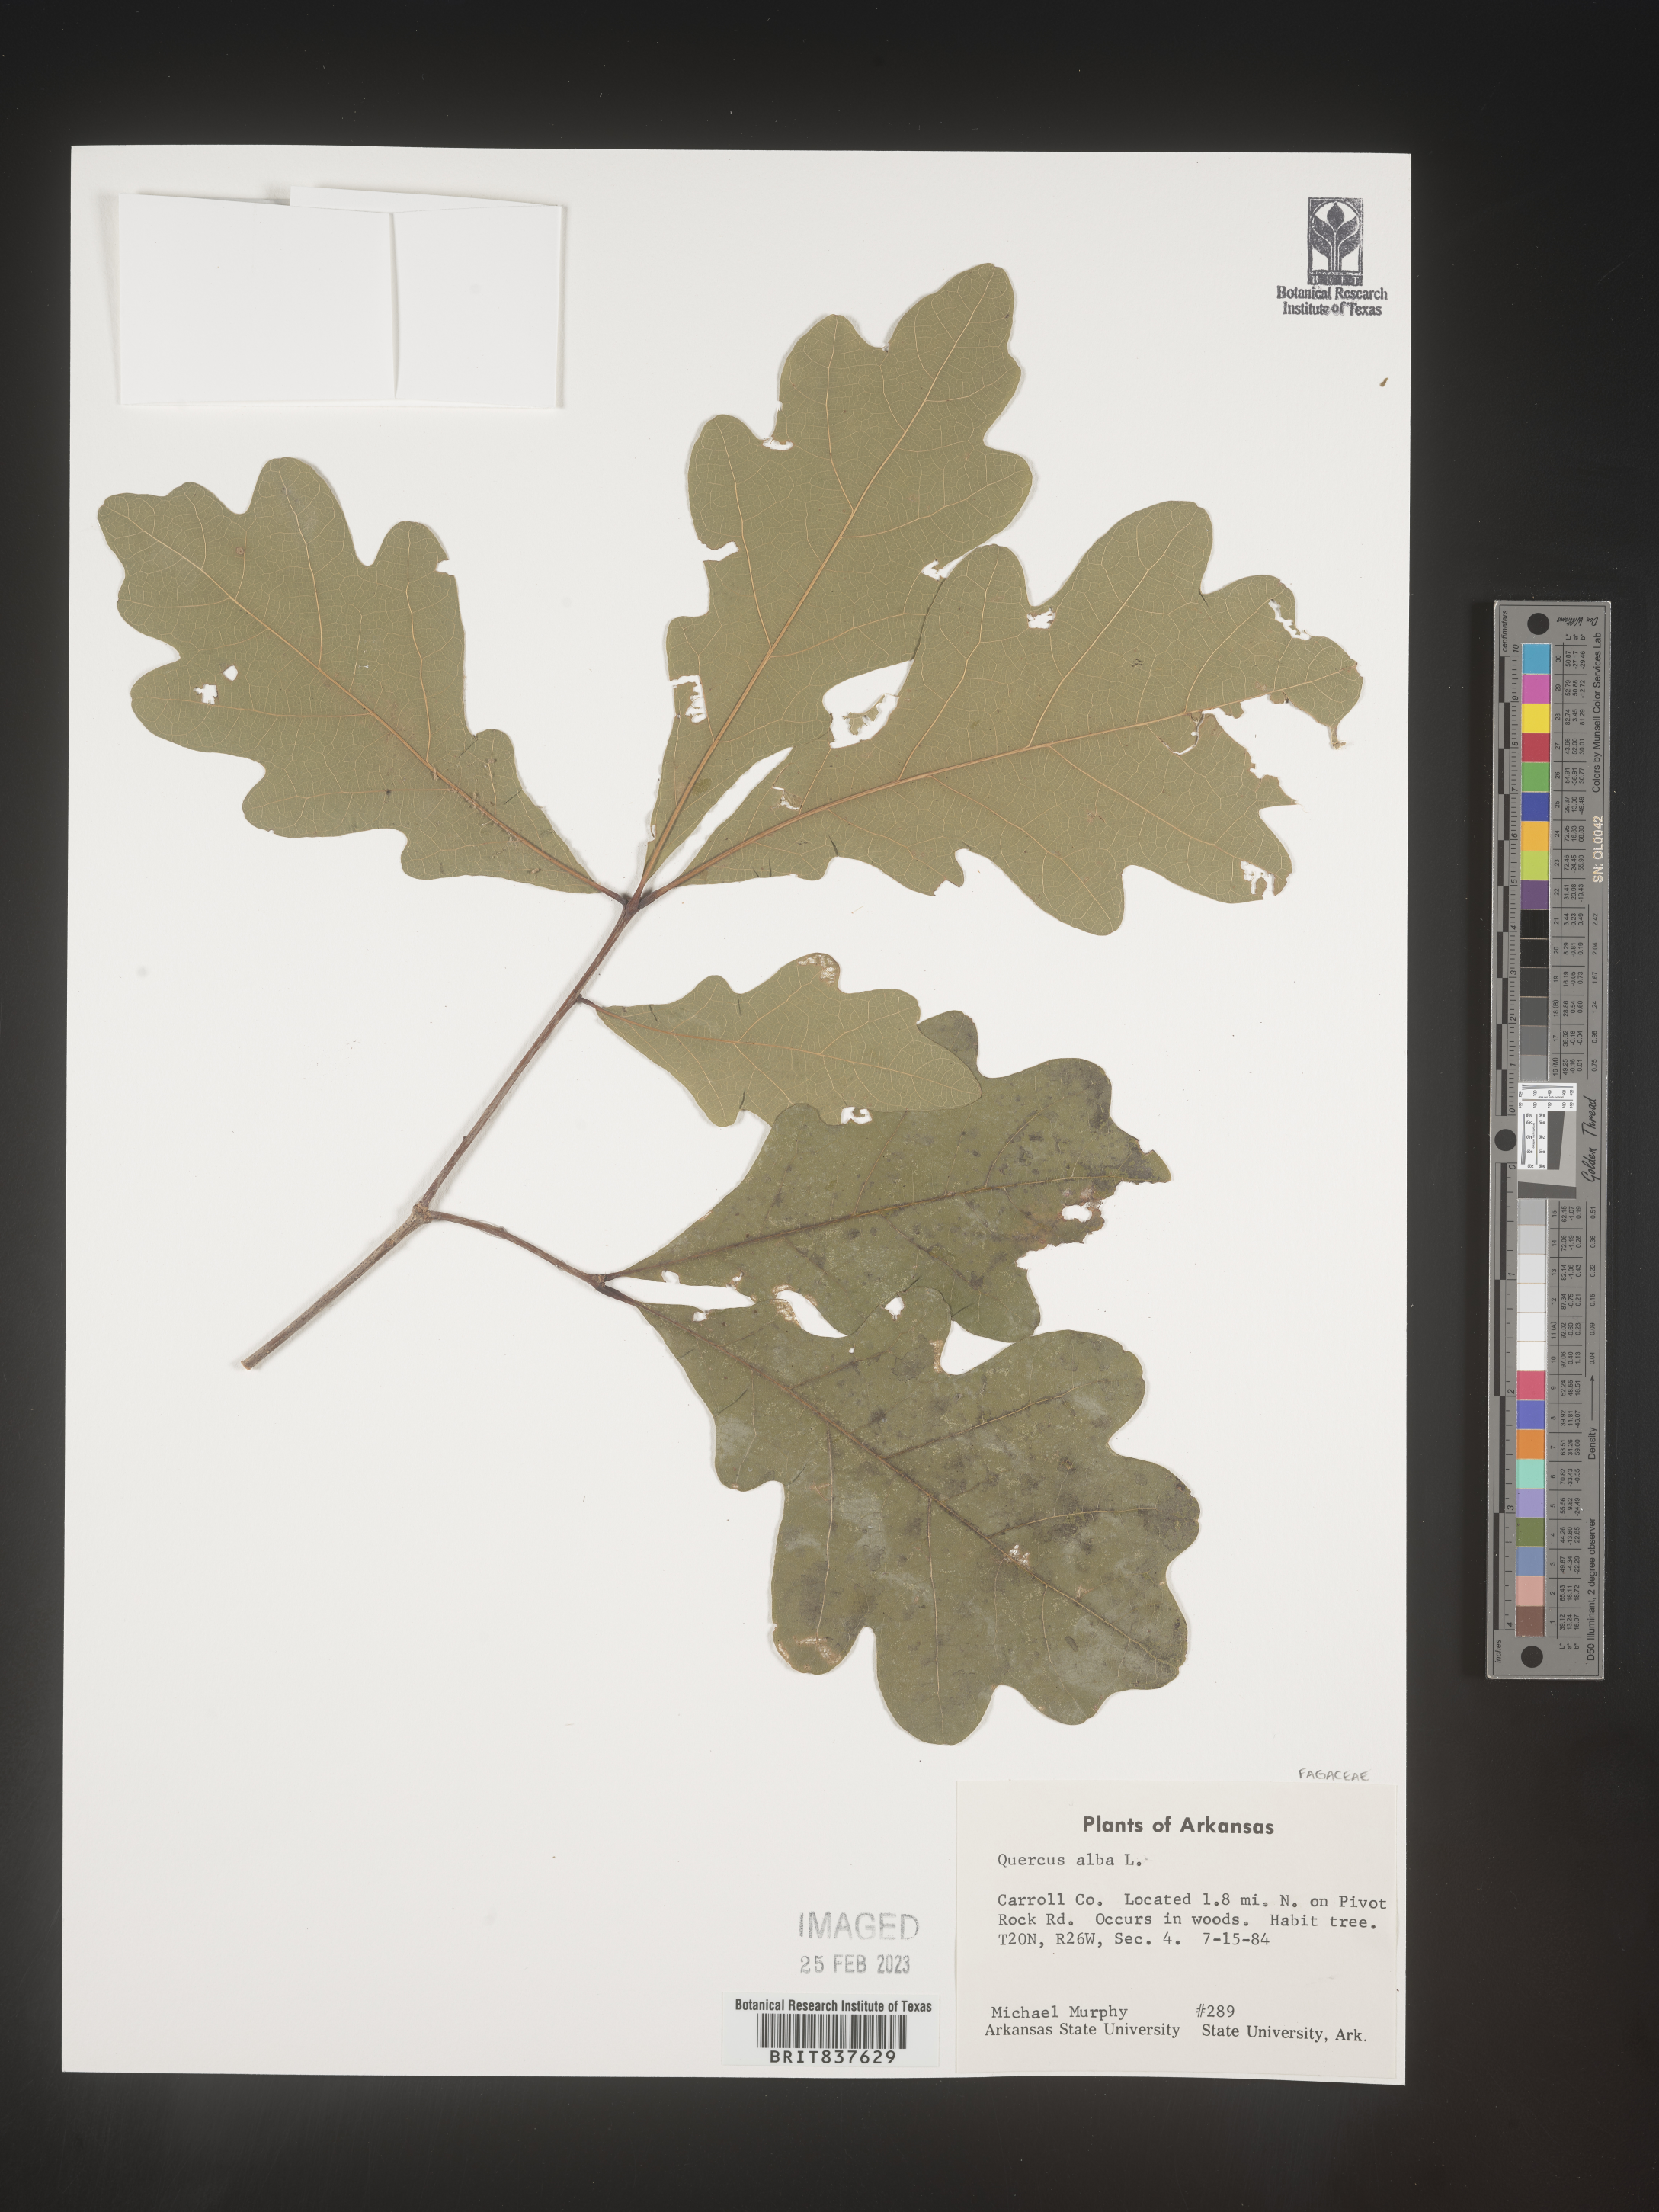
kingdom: Plantae
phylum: Tracheophyta
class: Magnoliopsida
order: Fagales
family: Fagaceae
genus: Quercus
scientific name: Quercus alba
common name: White oak
